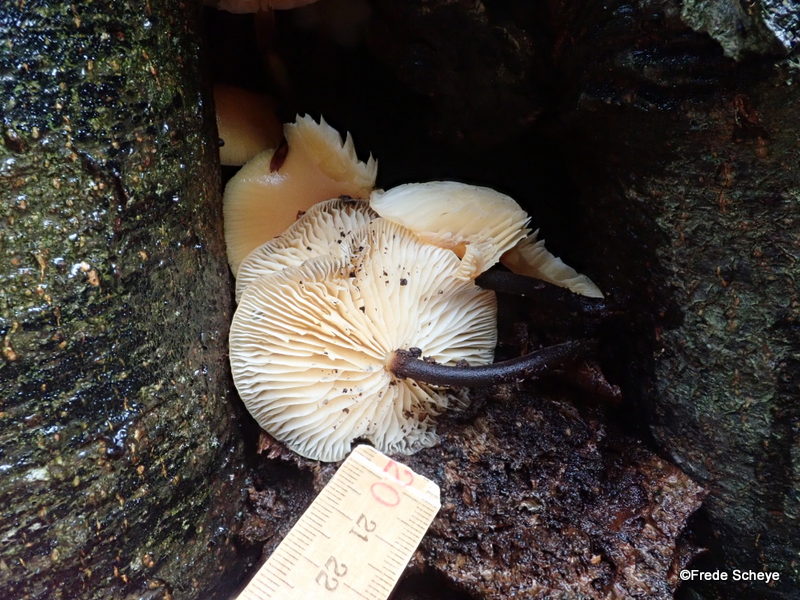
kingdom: Fungi
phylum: Basidiomycota
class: Agaricomycetes
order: Agaricales
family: Physalacriaceae
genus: Flammulina
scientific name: Flammulina velutipes
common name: gul fløjlsfod
